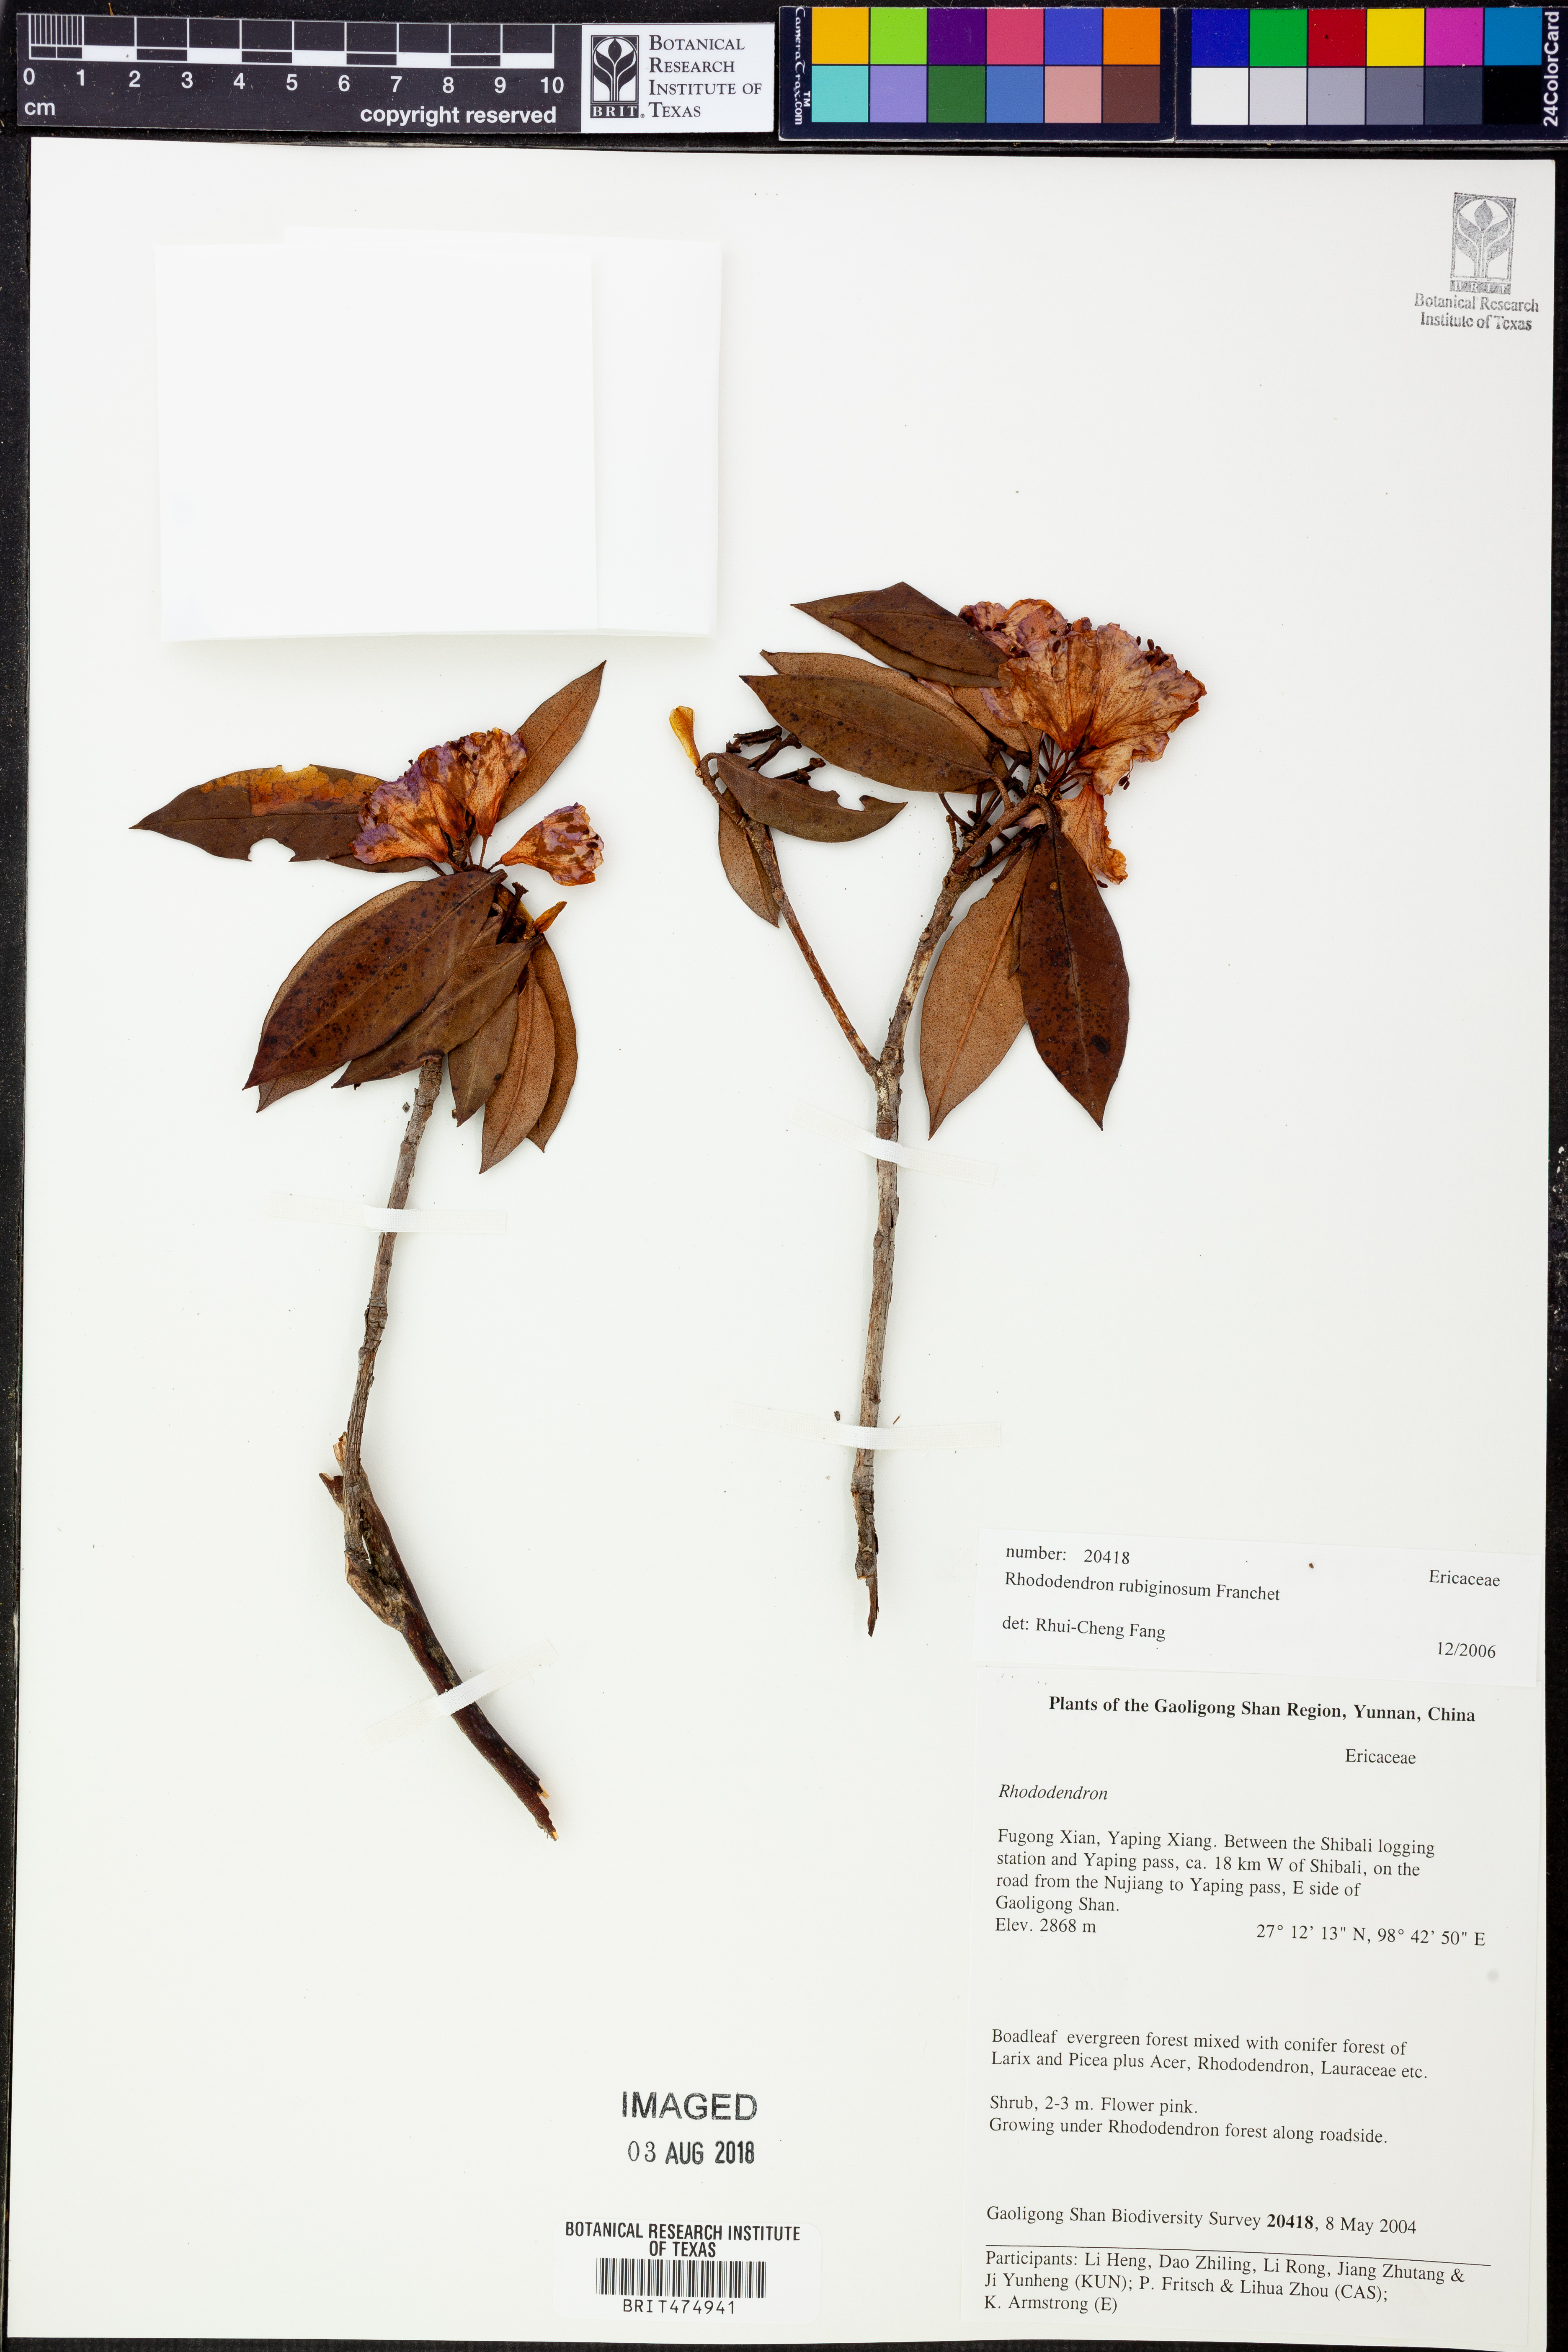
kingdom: Plantae
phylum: Tracheophyta
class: Magnoliopsida
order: Ericales
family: Ericaceae
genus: Rhododendron
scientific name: Rhododendron rubiginosum
